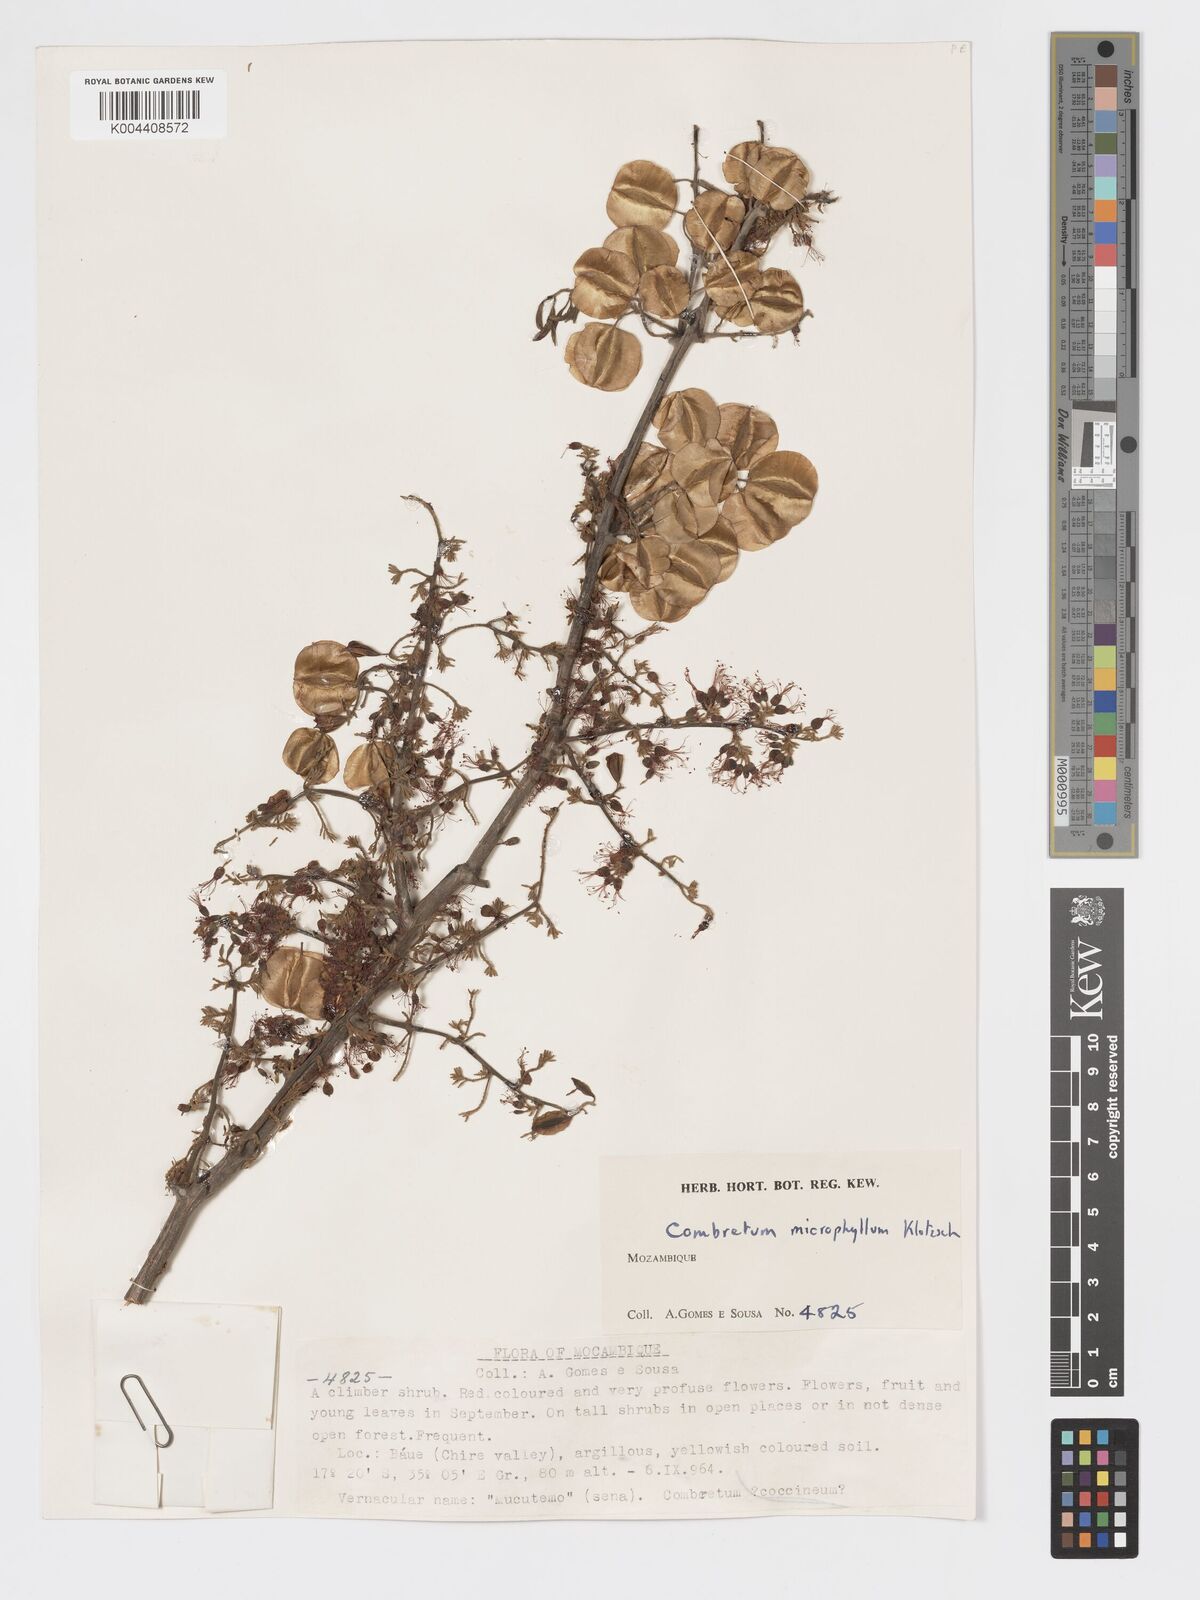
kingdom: Plantae
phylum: Tracheophyta
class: Magnoliopsida
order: Myrtales
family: Combretaceae
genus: Combretum
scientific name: Combretum microphyllum
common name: Burningbush
